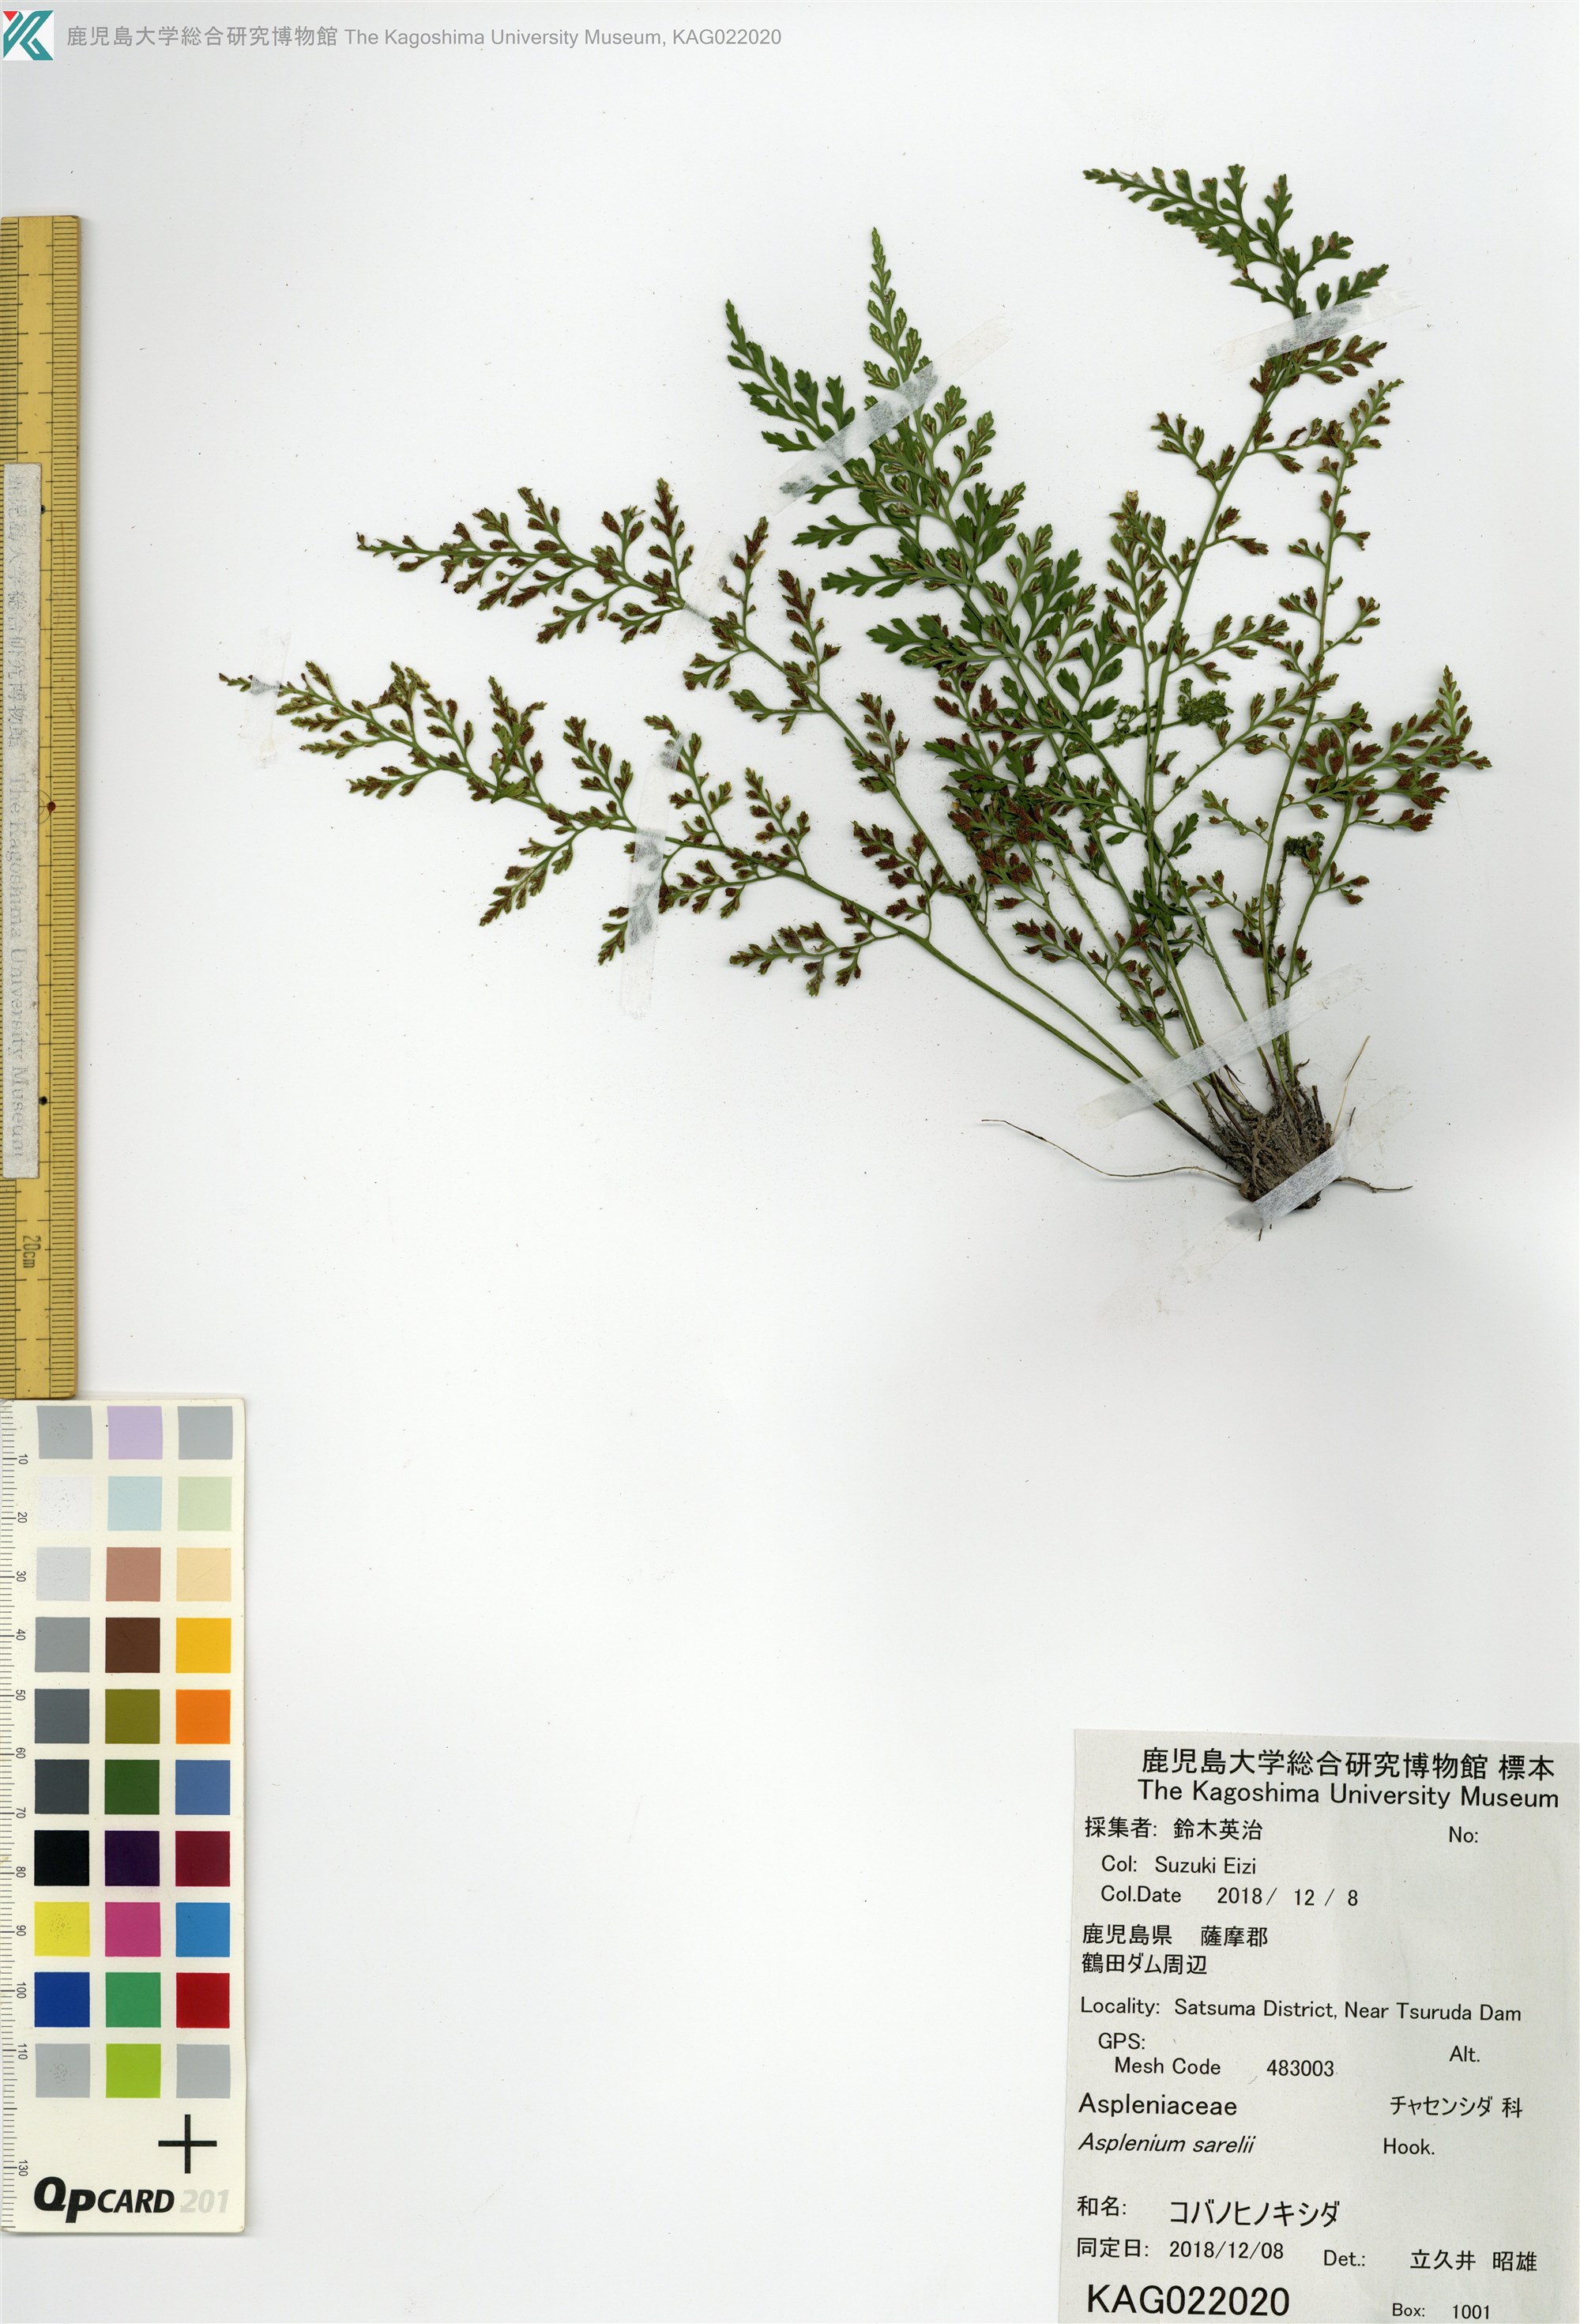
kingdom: Plantae
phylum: Tracheophyta
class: Polypodiopsida
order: Polypodiales
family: Aspleniaceae
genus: Asplenium
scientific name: Asplenium anogrammoides
